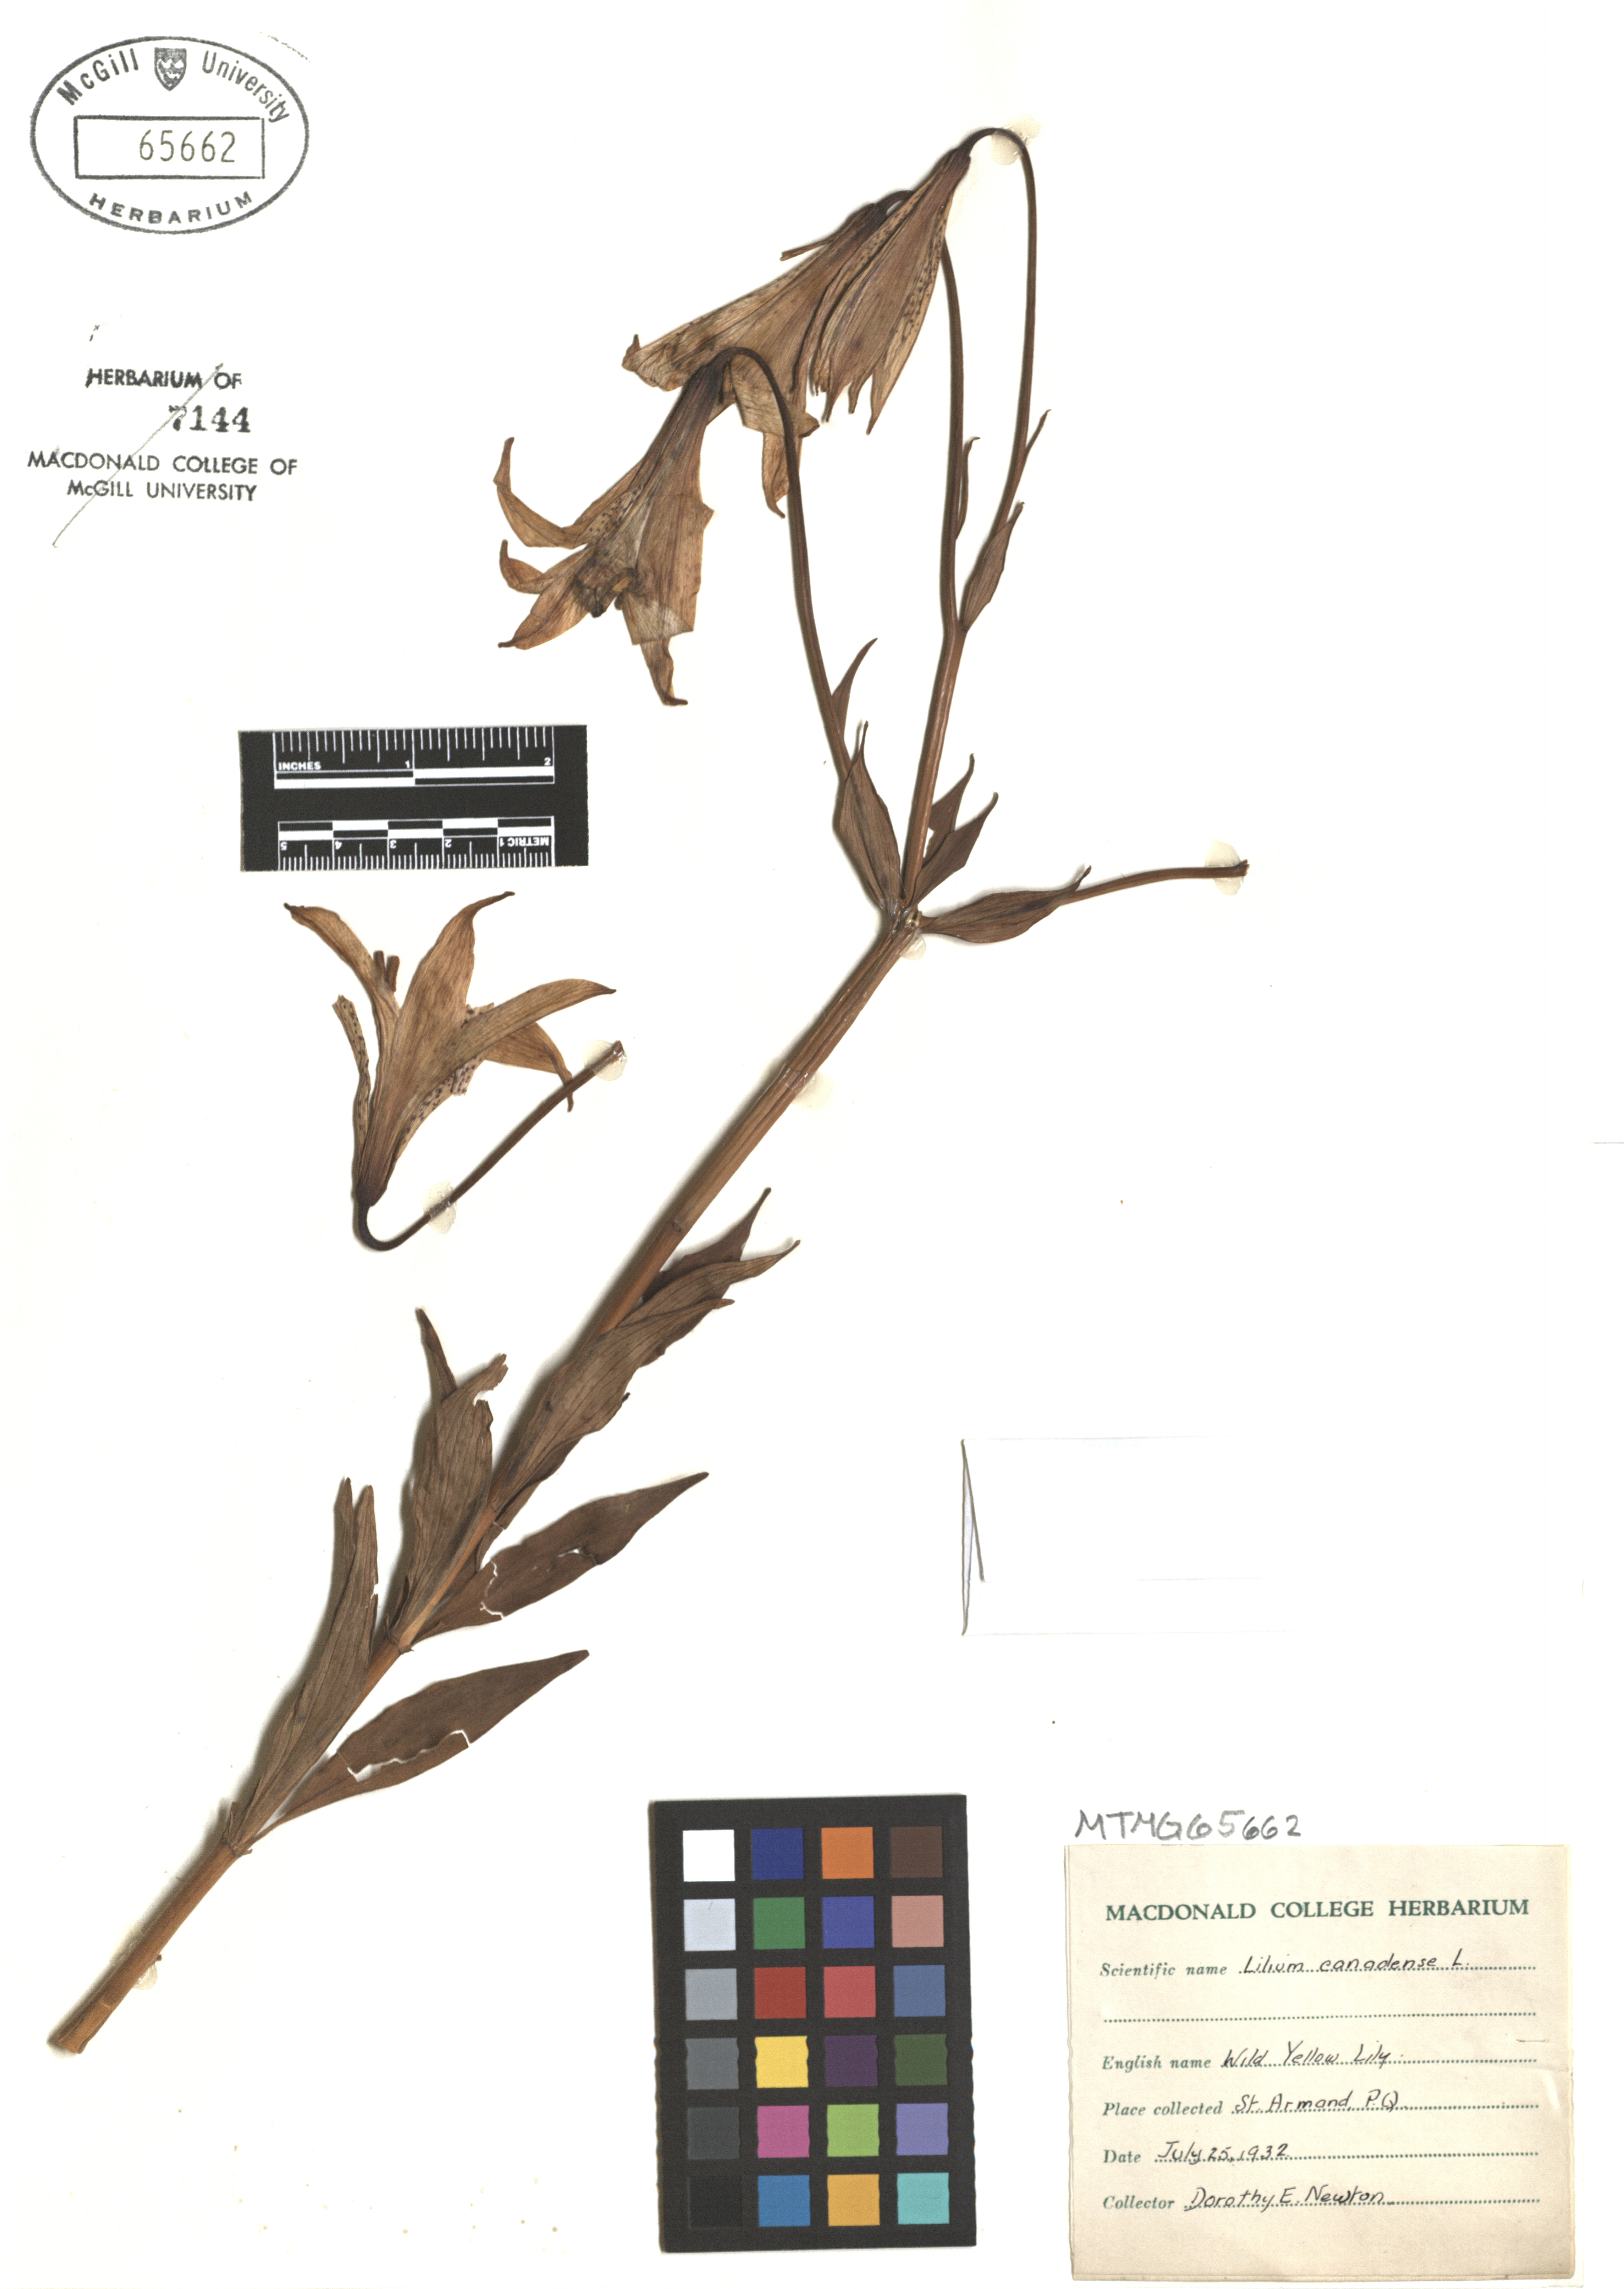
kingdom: Plantae
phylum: Tracheophyta
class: Liliopsida
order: Liliales
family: Liliaceae
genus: Lilium
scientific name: Lilium canadense
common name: Canada lily
